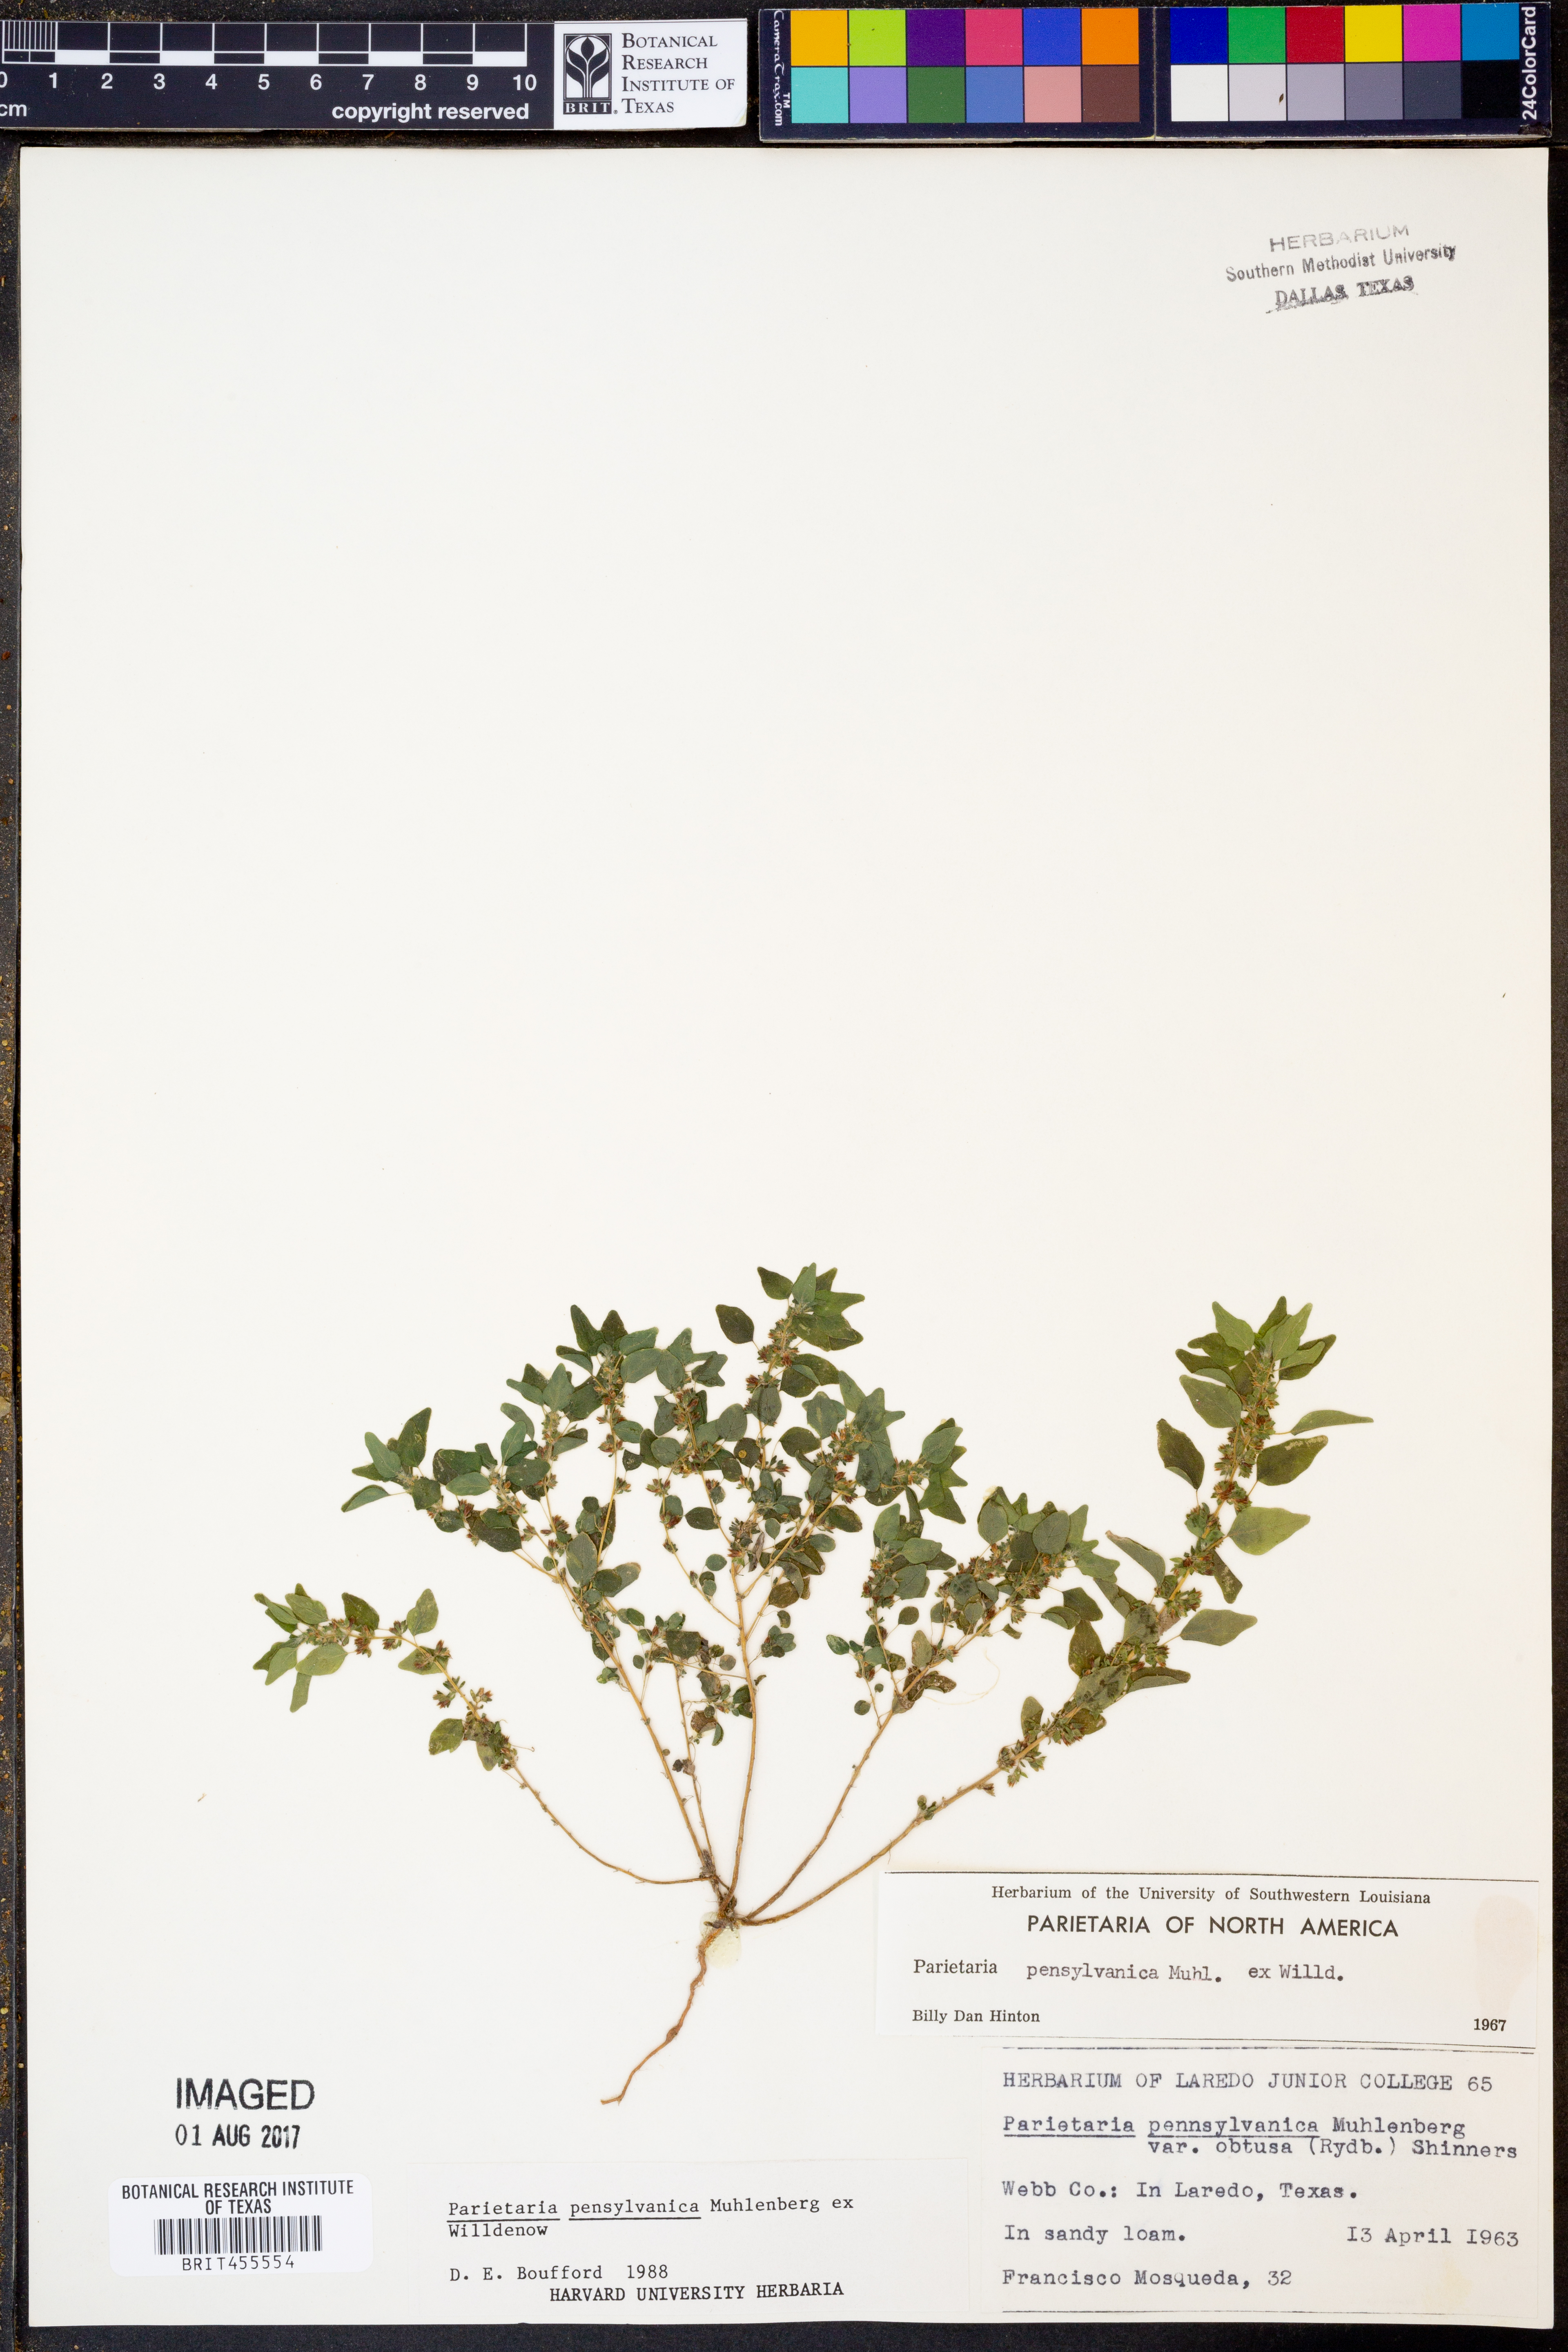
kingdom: Plantae
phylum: Tracheophyta
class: Magnoliopsida
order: Rosales
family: Urticaceae
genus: Parietaria
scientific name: Parietaria pensylvanica
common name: Pennsylvania pellitory
